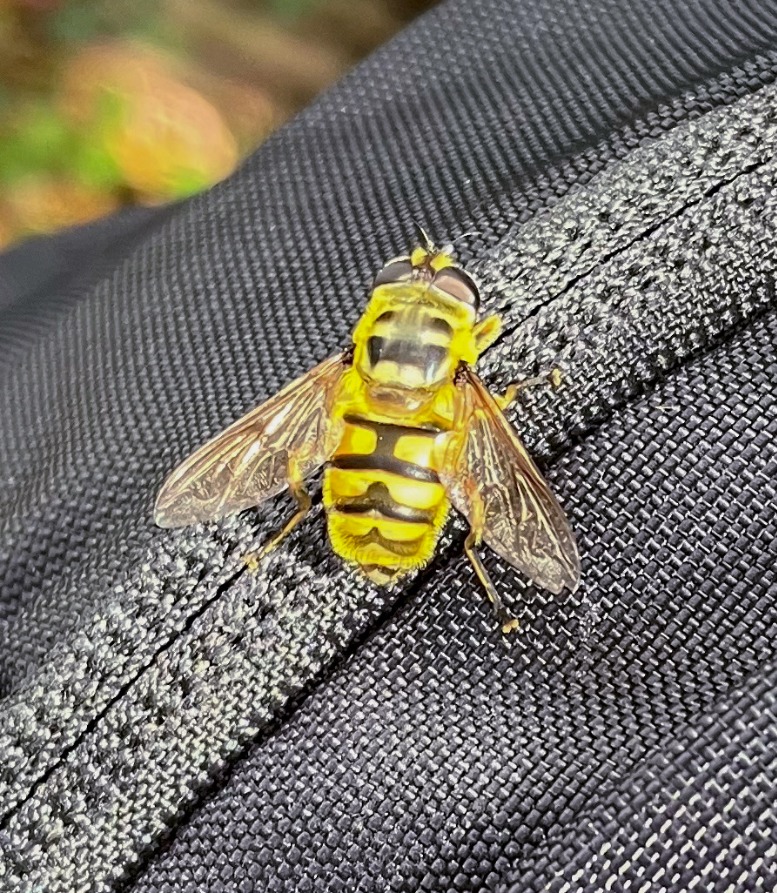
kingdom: Animalia
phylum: Arthropoda
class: Insecta
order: Diptera
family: Syrphidae
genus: Myathropa
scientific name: Myathropa florea
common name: Dødningehoved-svirreflue
